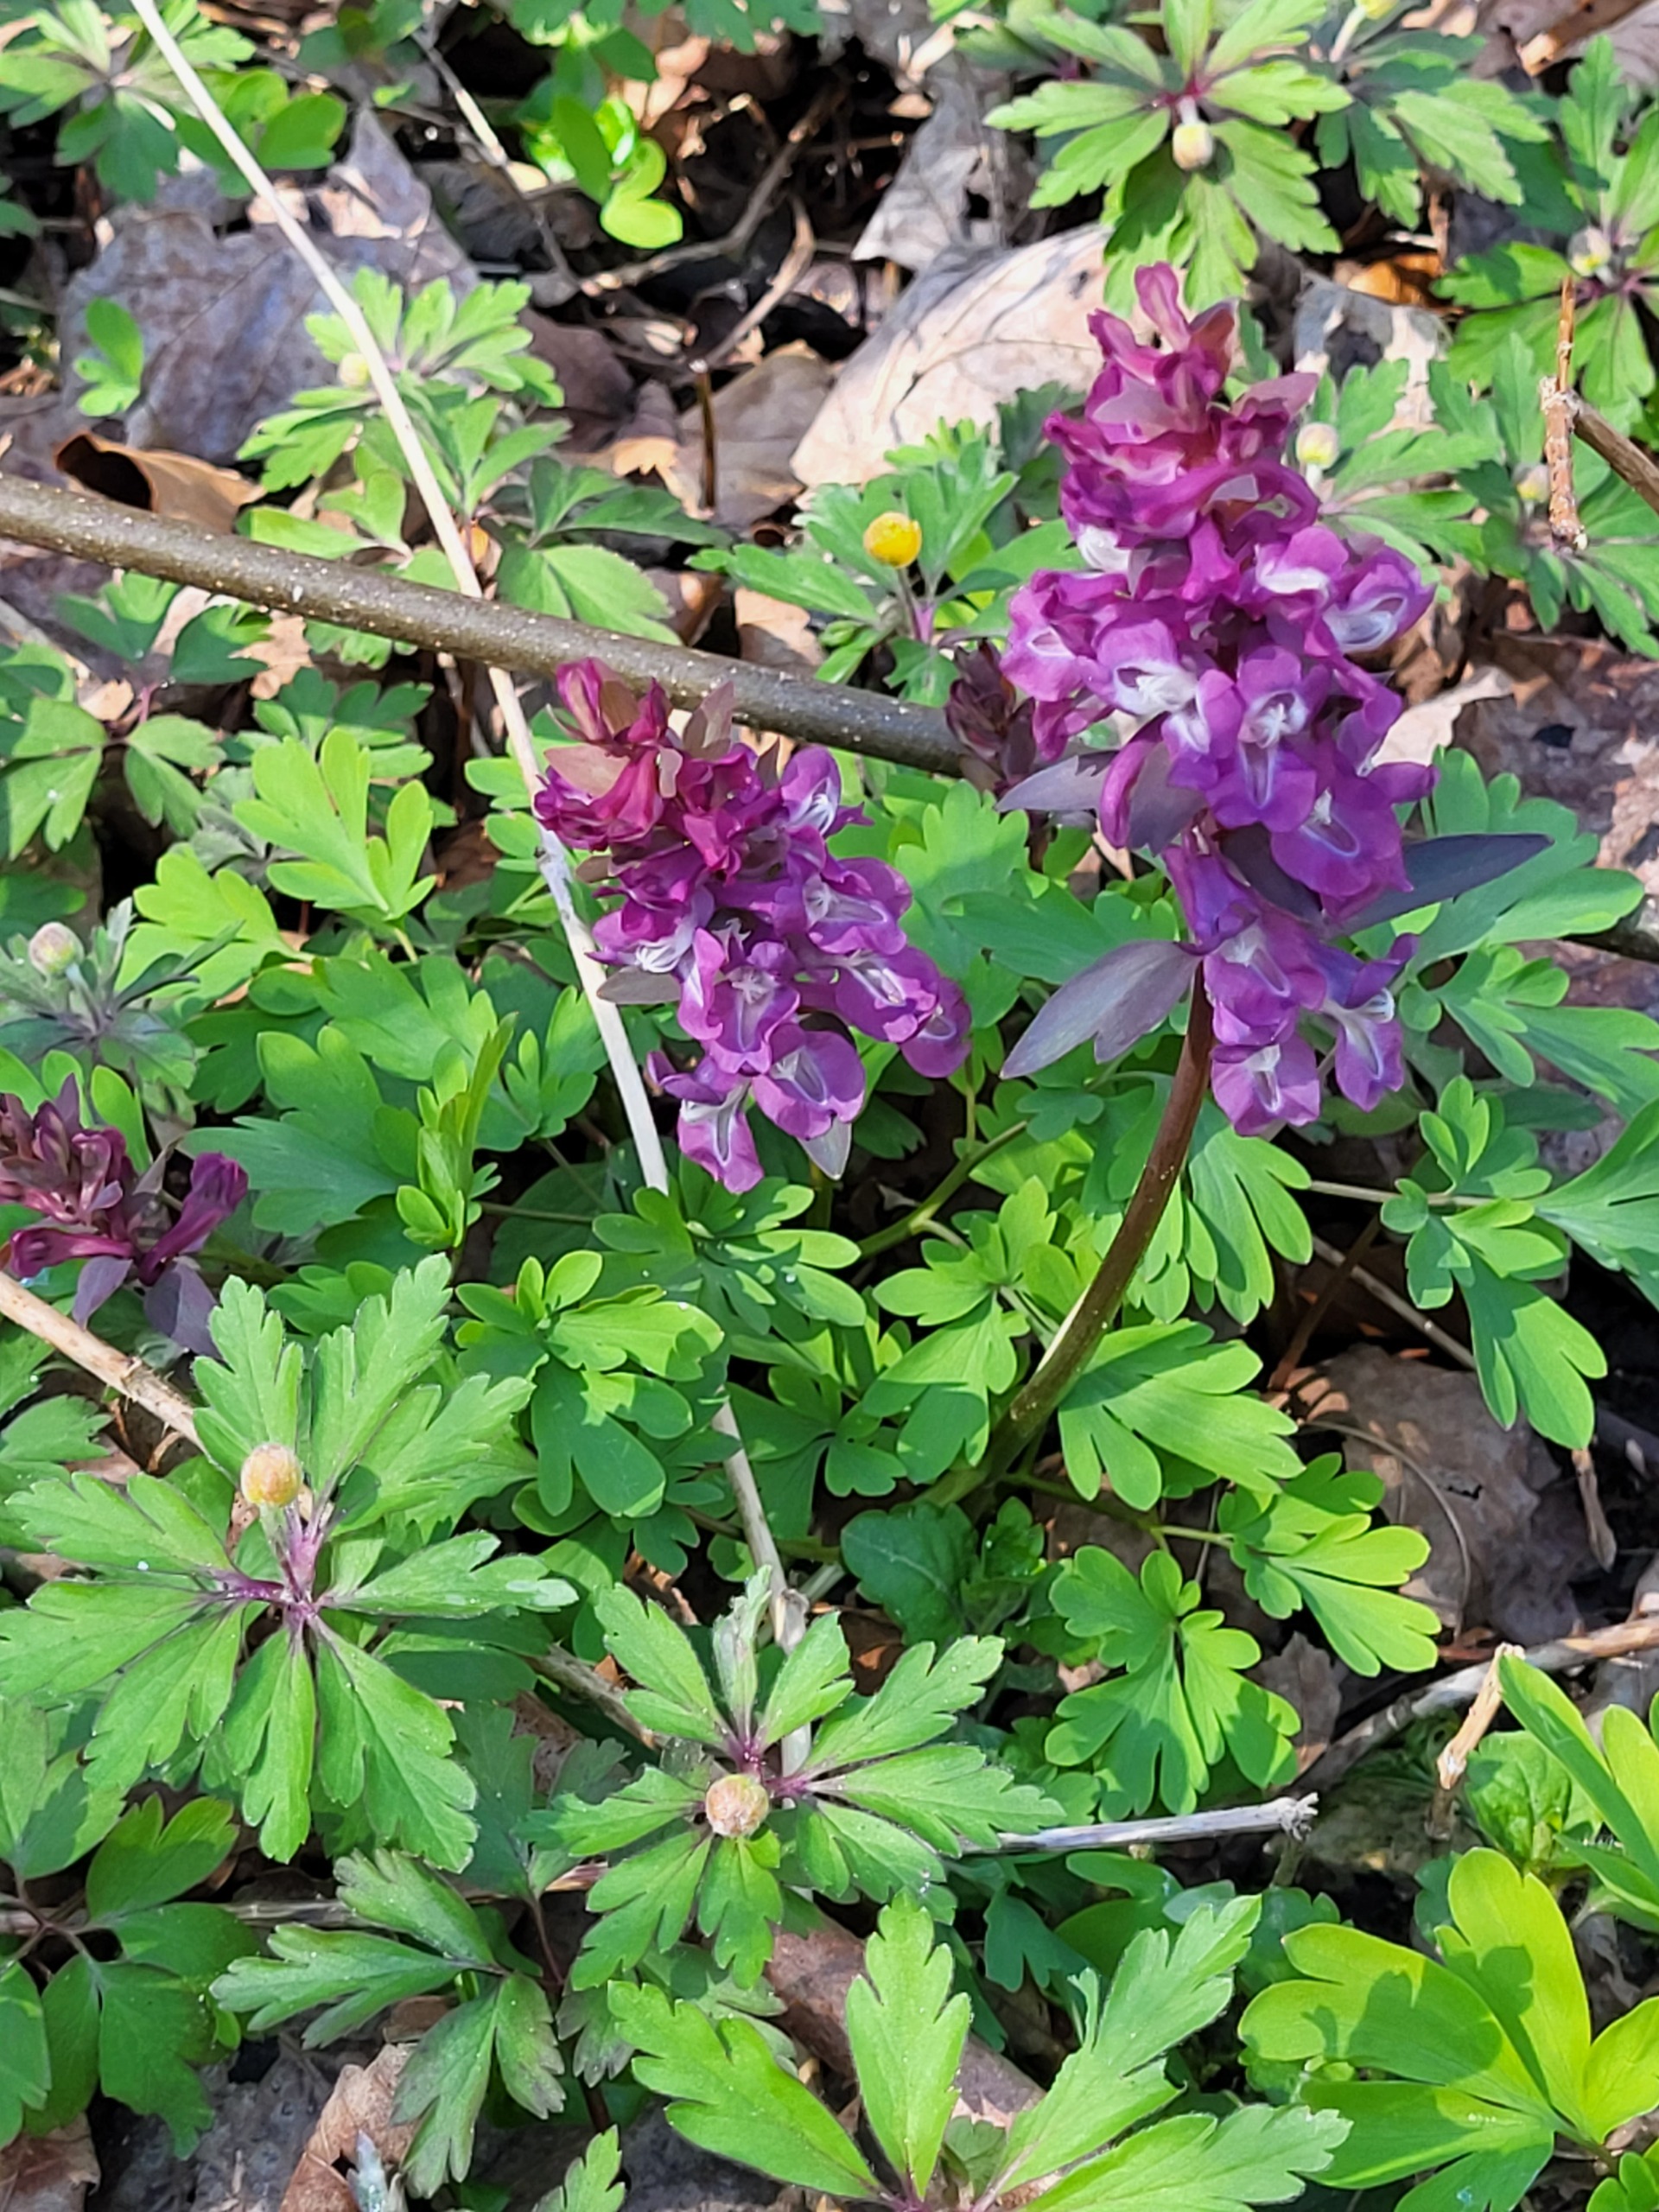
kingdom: Plantae
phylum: Tracheophyta
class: Magnoliopsida
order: Ranunculales
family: Papaveraceae
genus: Corydalis
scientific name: Corydalis cava
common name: Hulrodet lærkespore
